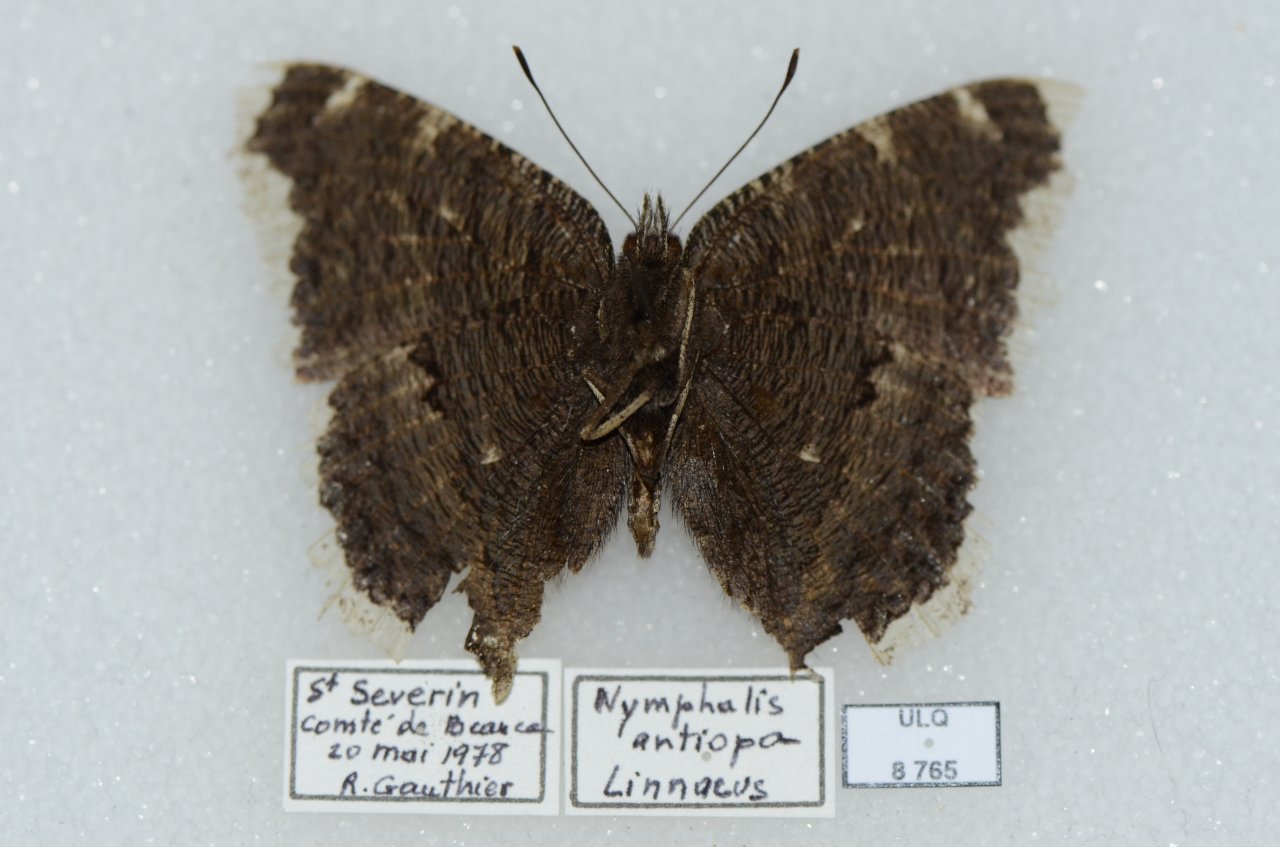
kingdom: Animalia
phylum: Arthropoda
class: Insecta
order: Lepidoptera
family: Nymphalidae
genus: Nymphalis
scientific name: Nymphalis antiopa
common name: Mourning Cloak
